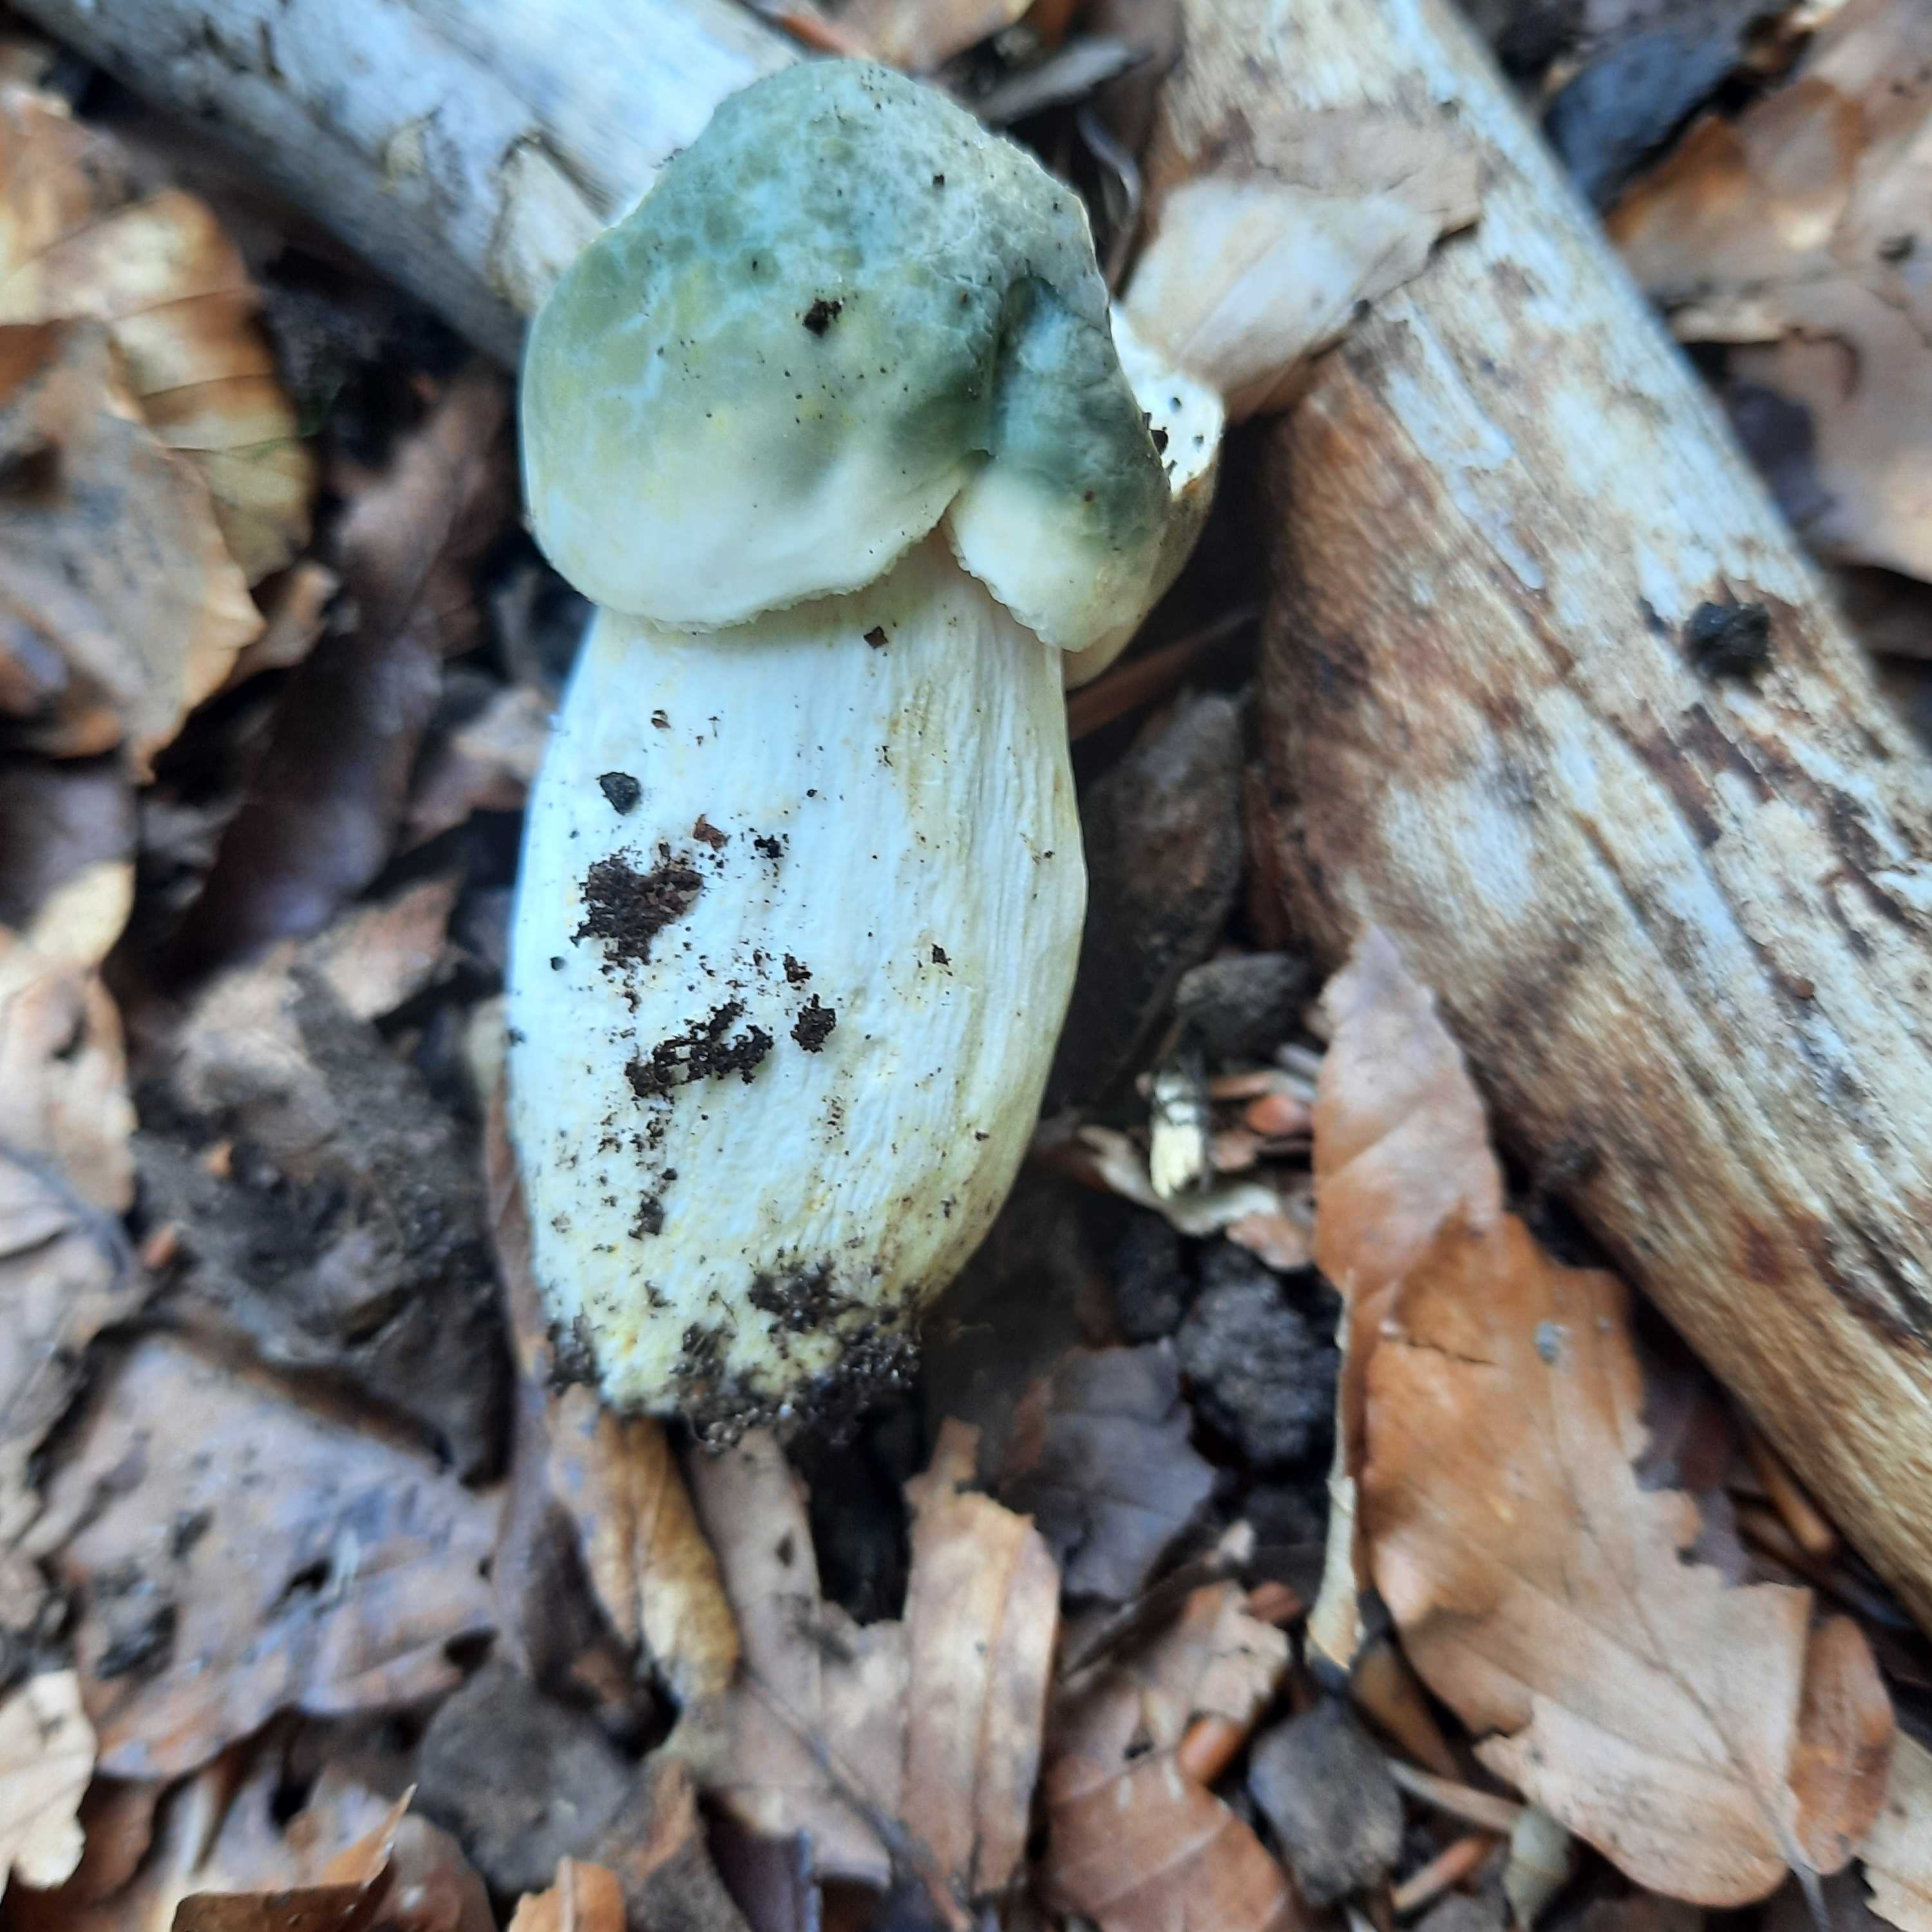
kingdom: Fungi
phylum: Basidiomycota
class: Agaricomycetes
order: Russulales
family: Russulaceae
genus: Russula
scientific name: Russula virescens
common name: spanskgrøn skørhat
